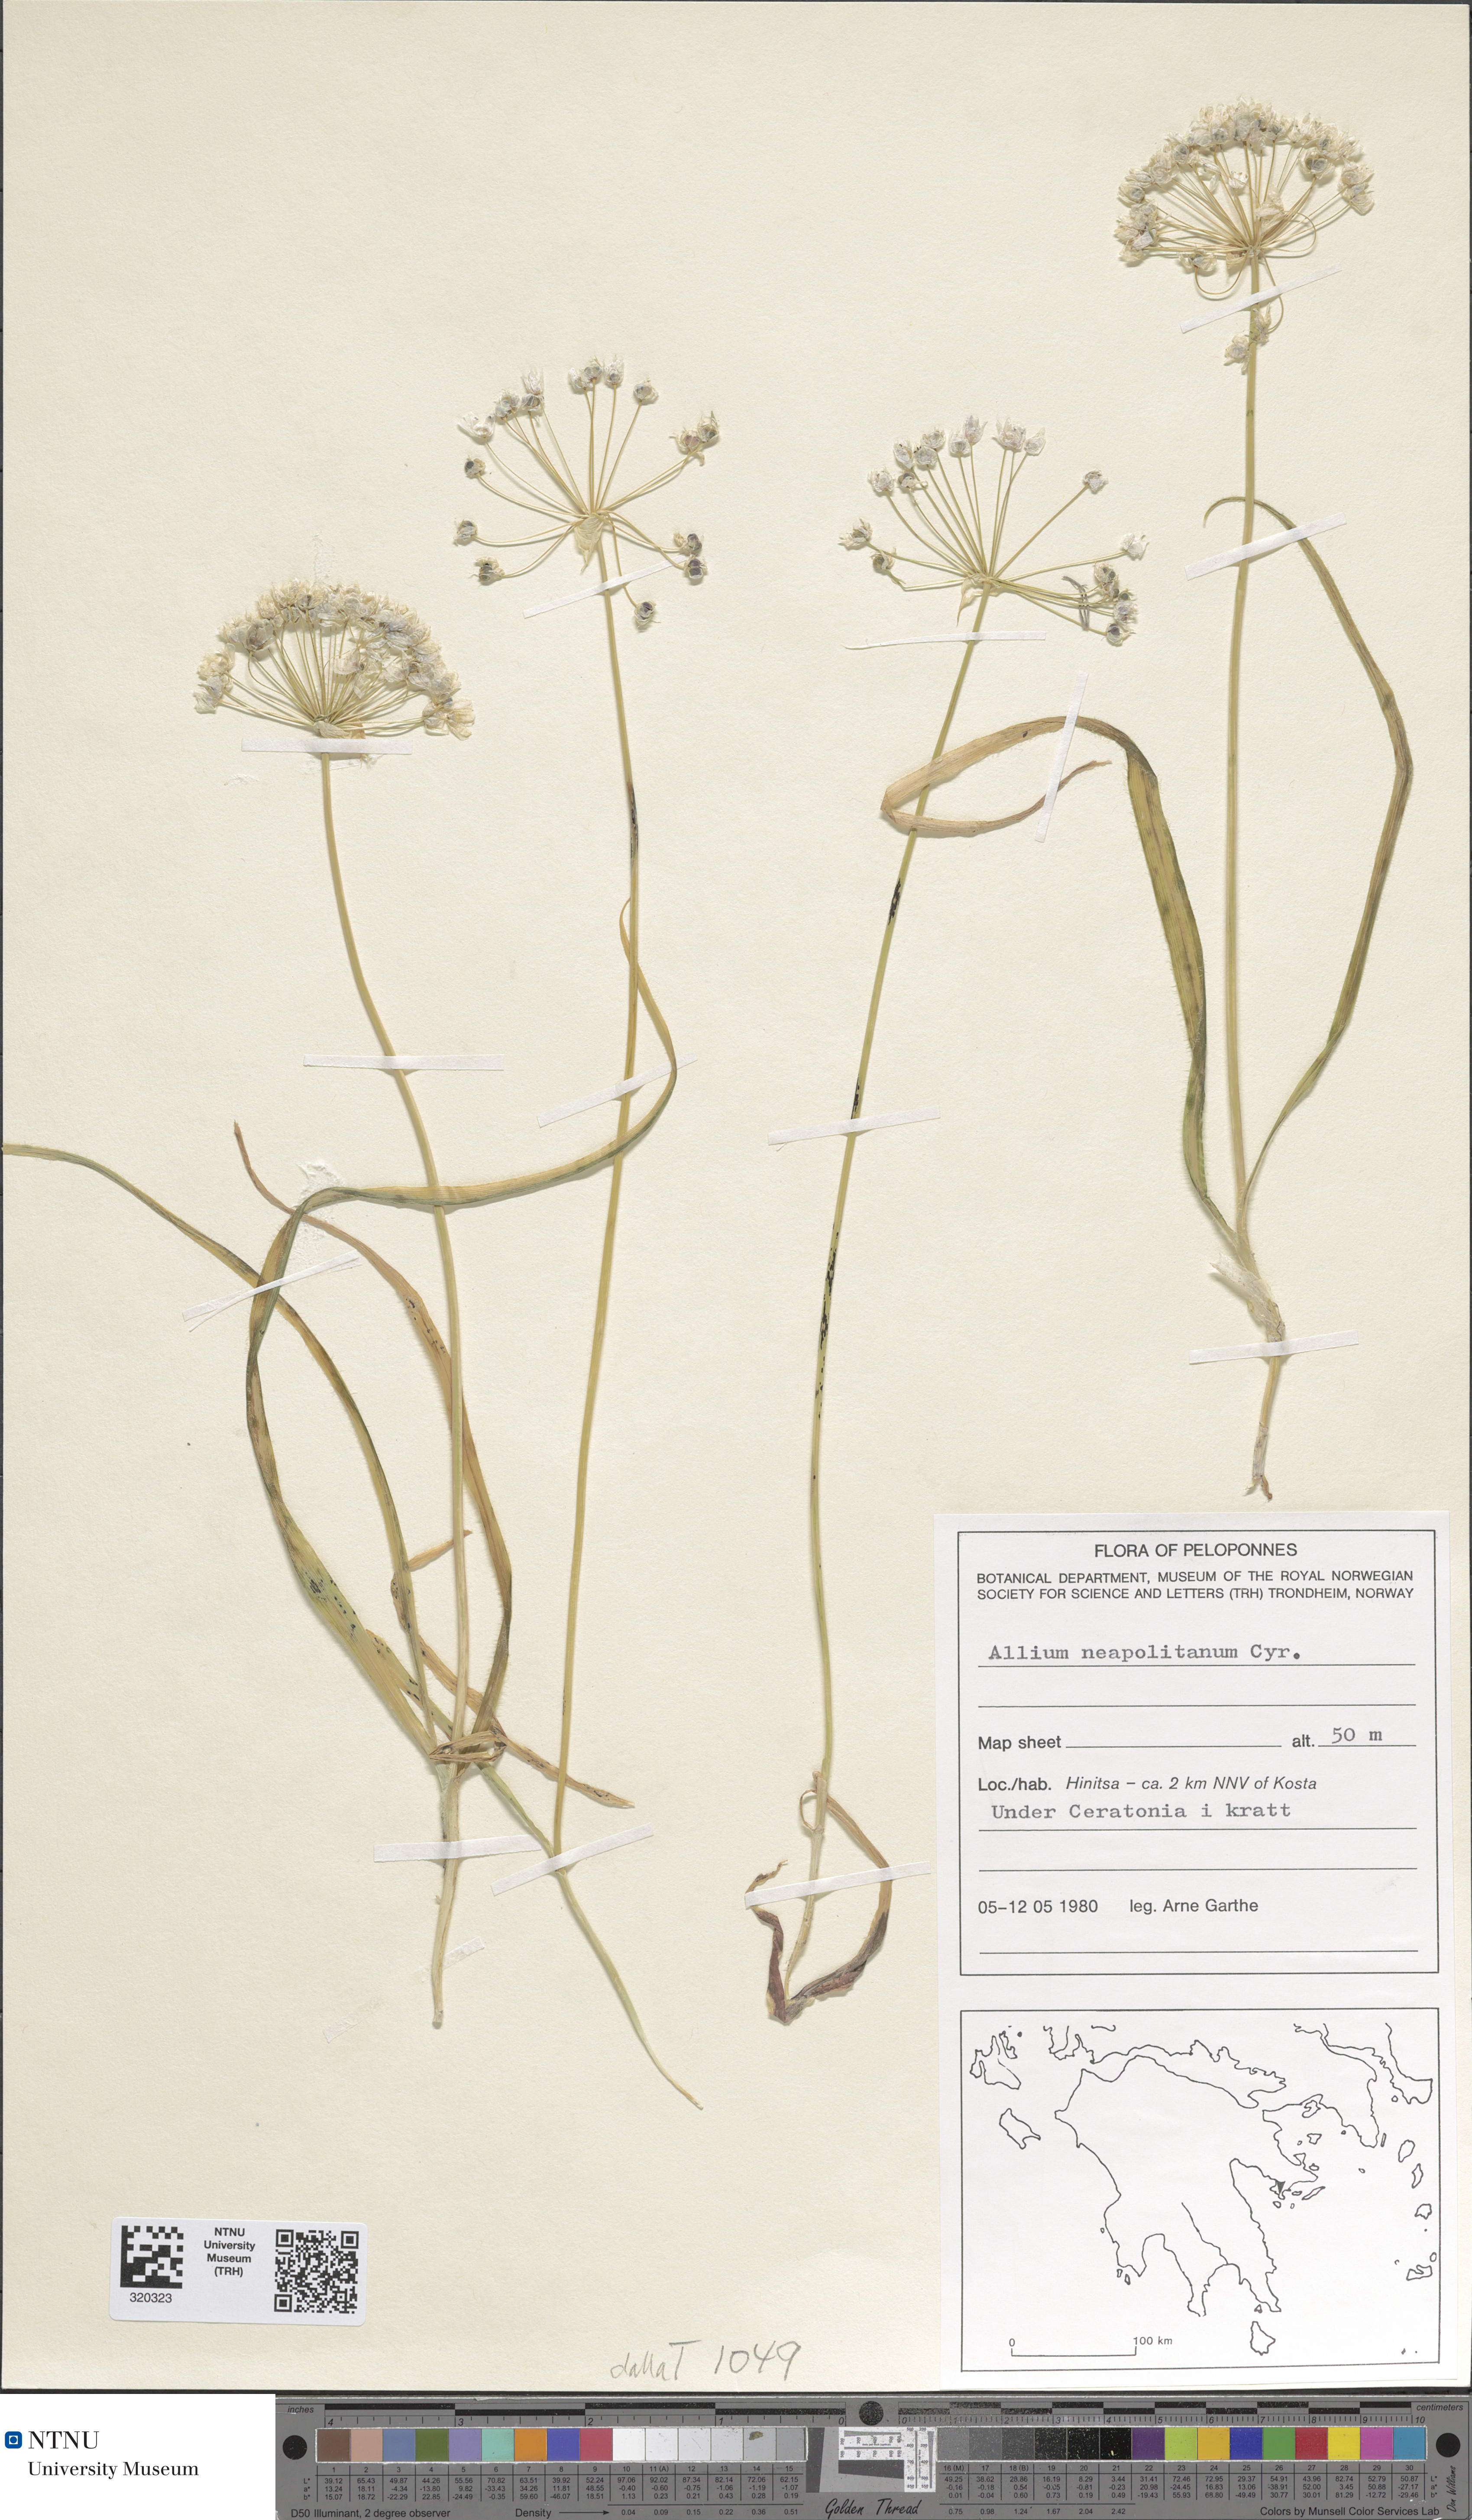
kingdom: Plantae
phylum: Tracheophyta
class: Liliopsida
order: Asparagales
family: Amaryllidaceae
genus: Allium
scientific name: Allium neapolitanum
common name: Neapolitan garlic
